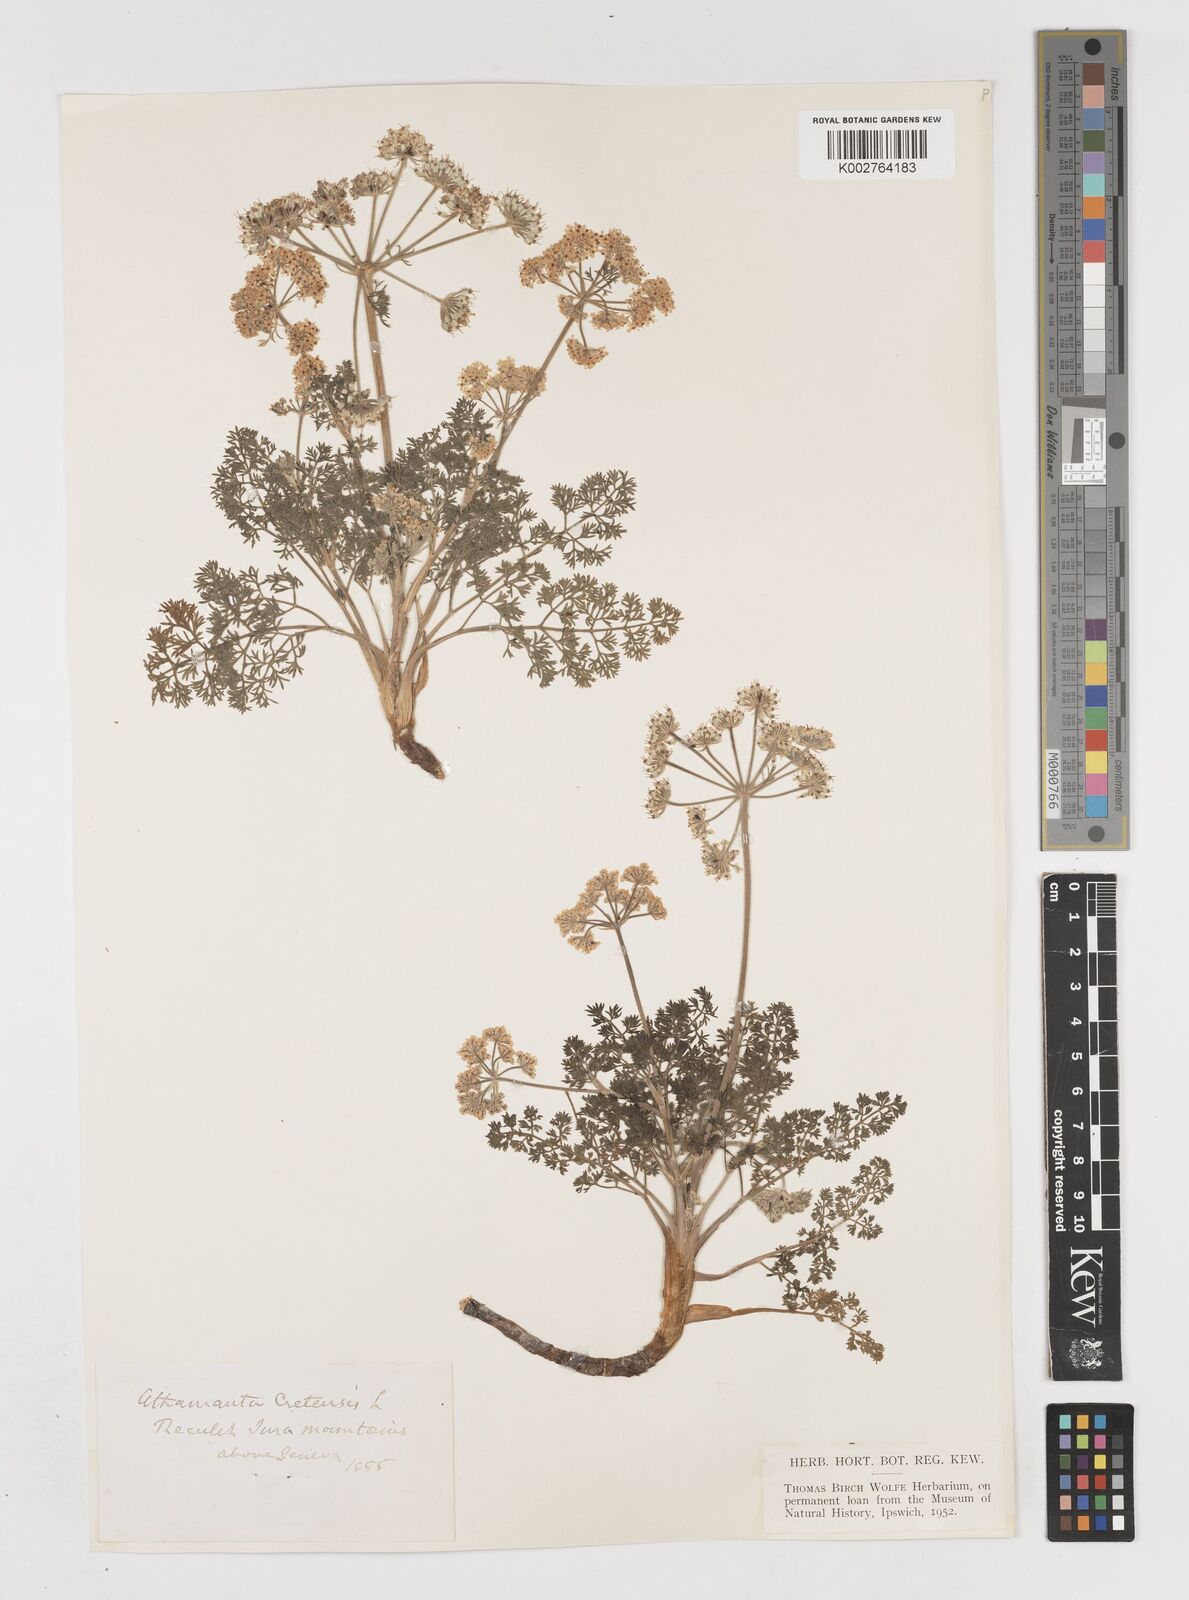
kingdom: Plantae
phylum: Tracheophyta
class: Magnoliopsida
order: Apiales
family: Apiaceae
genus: Athamanta
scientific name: Athamanta cretensis
